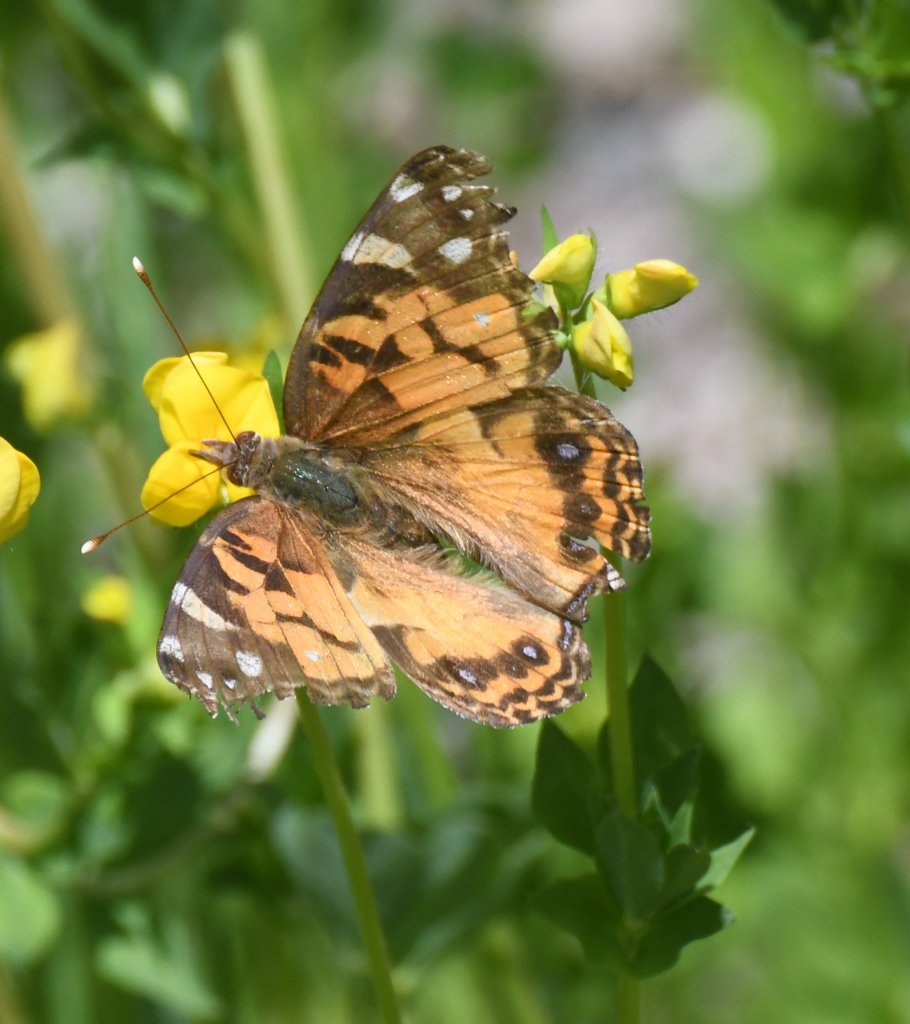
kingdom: Animalia
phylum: Arthropoda
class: Insecta
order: Lepidoptera
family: Nymphalidae
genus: Vanessa
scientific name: Vanessa virginiensis
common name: American Lady
